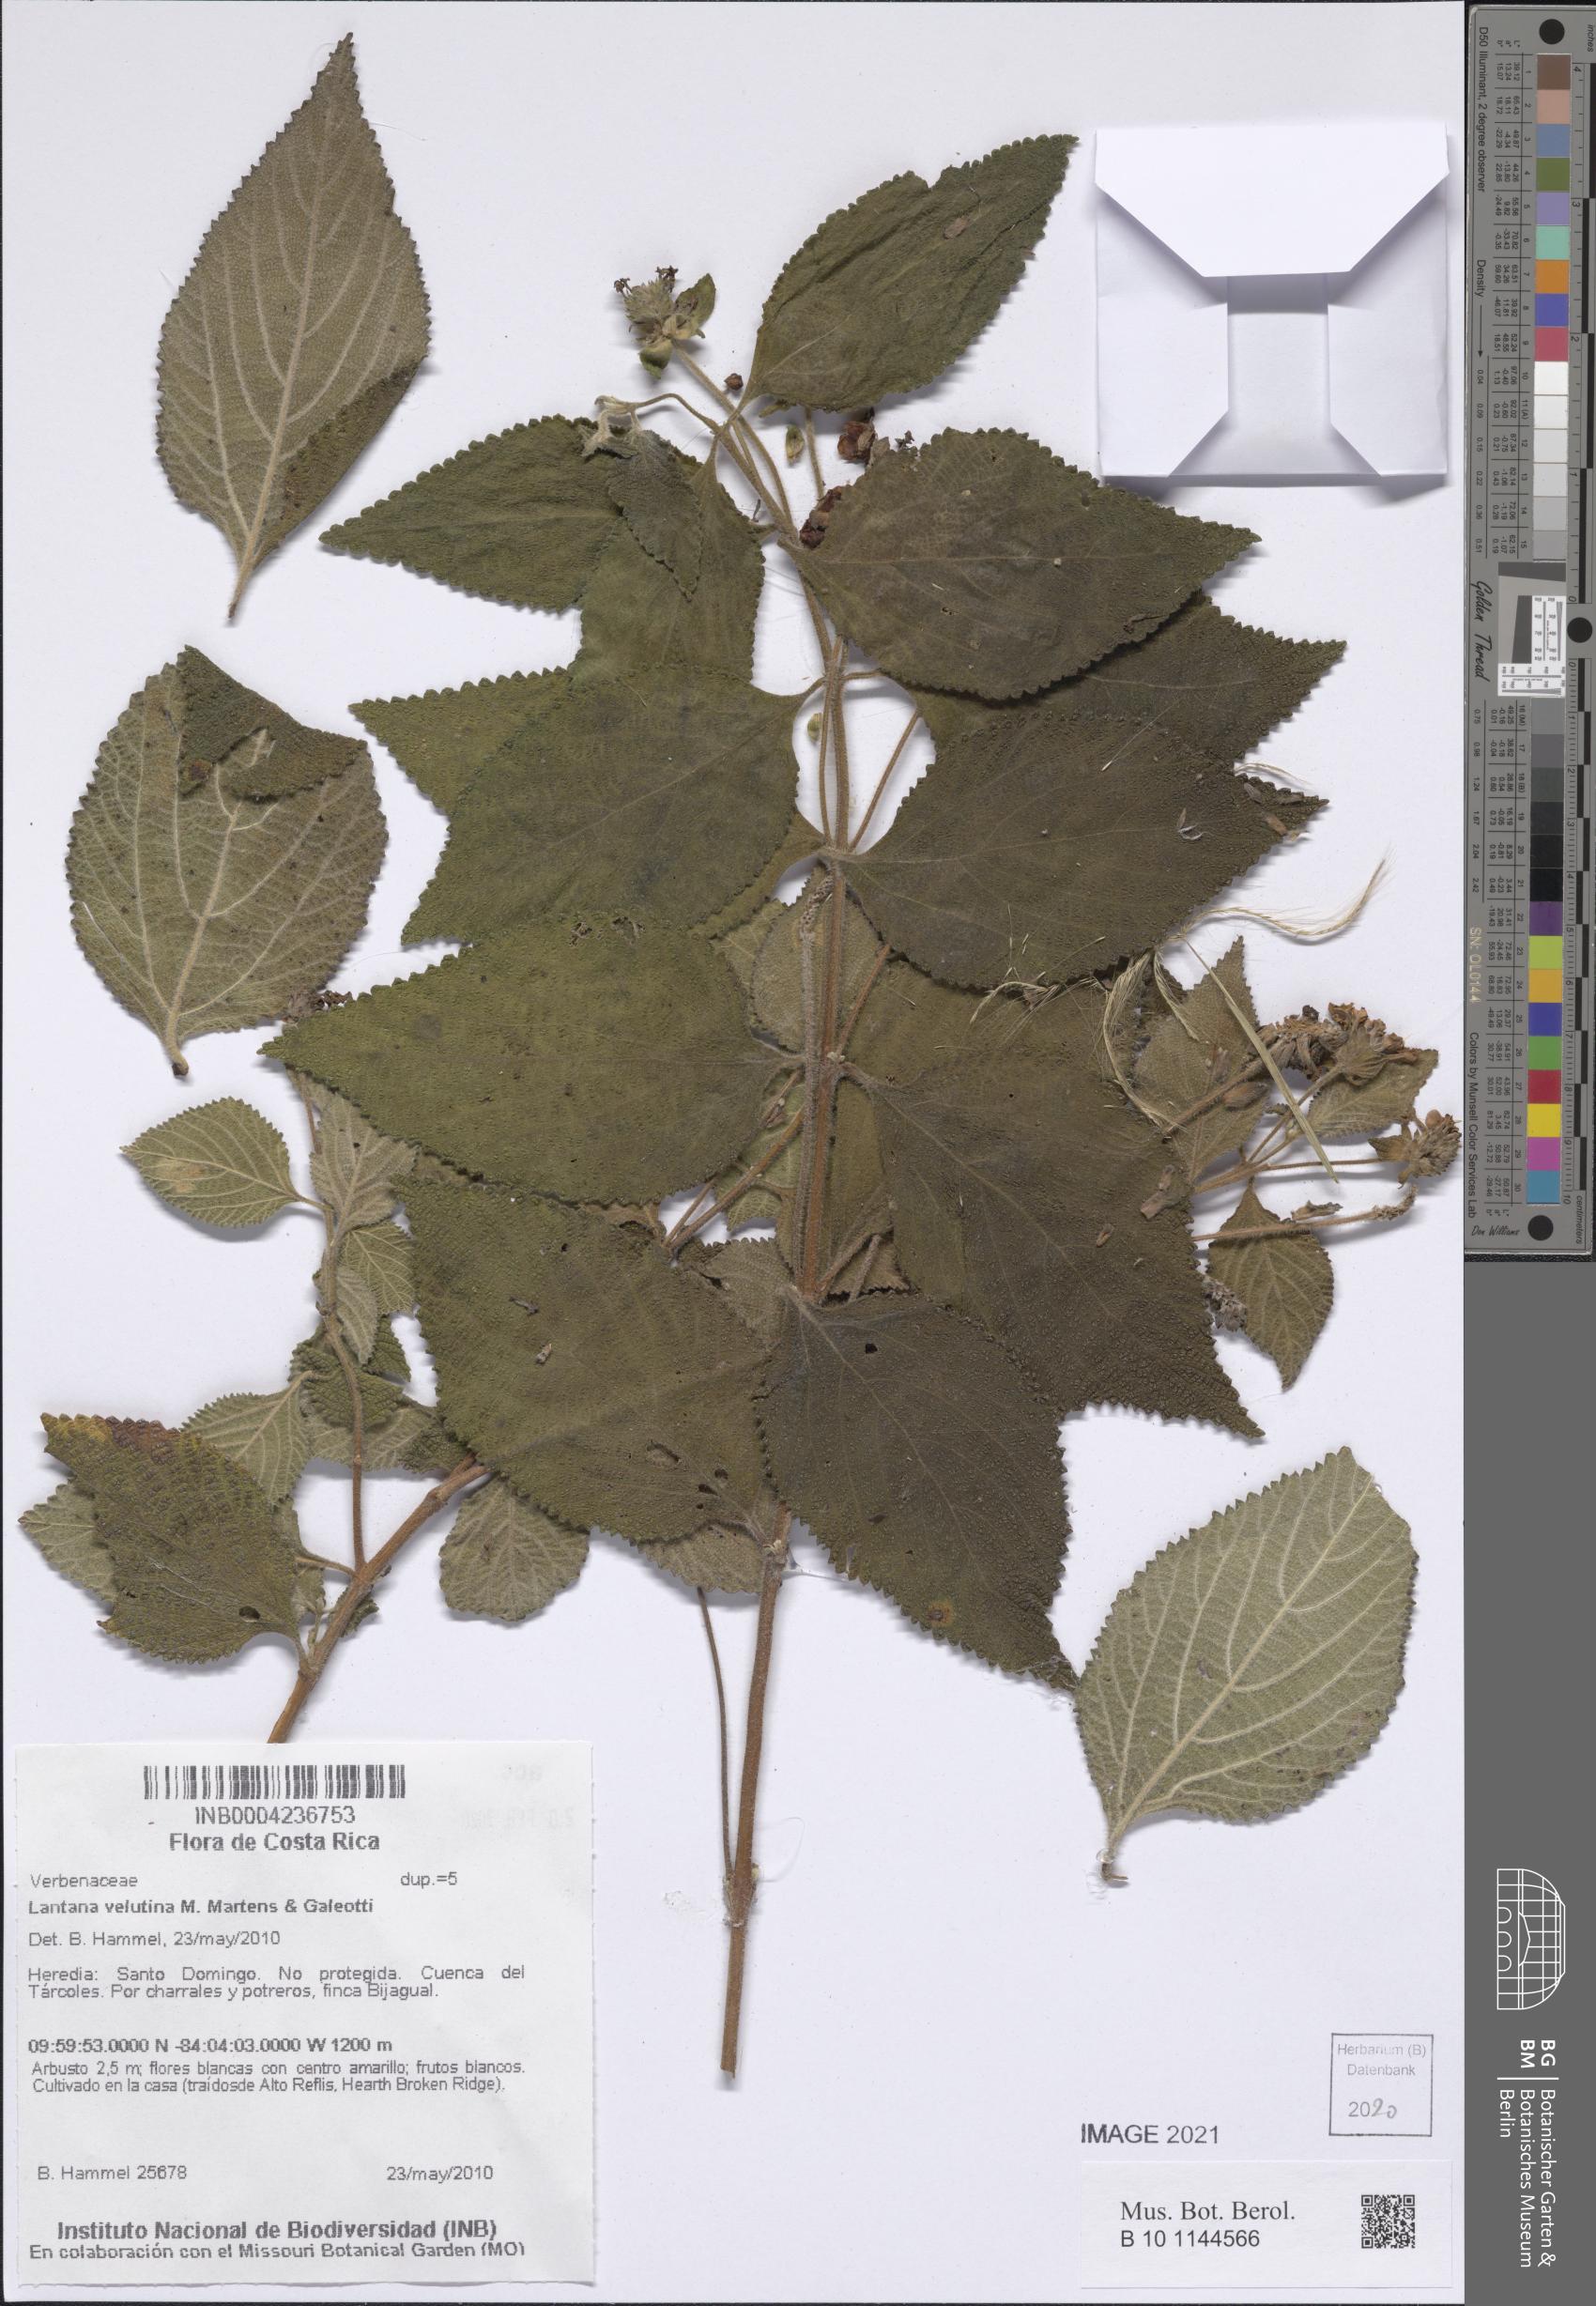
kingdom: Plantae
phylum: Tracheophyta
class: Magnoliopsida
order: Lamiales
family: Verbenaceae
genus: Lantana
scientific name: Lantana velutina
